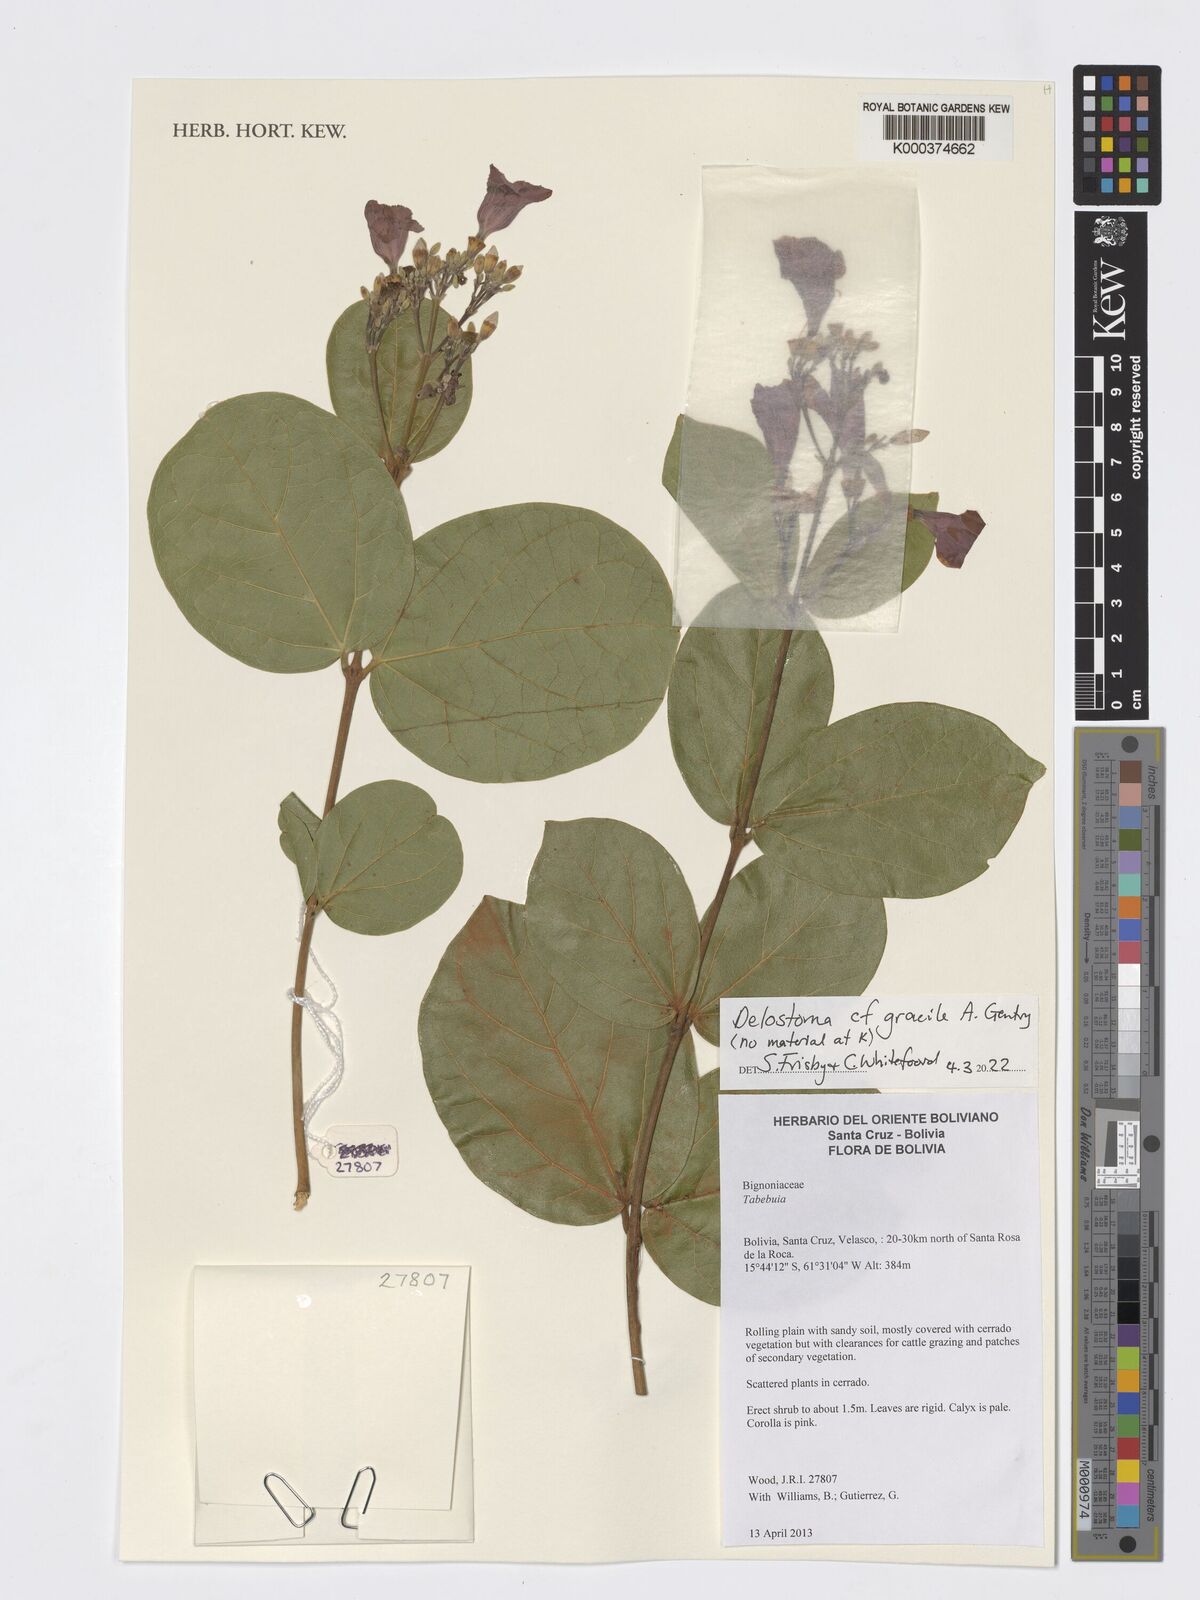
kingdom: Plantae
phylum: Tracheophyta
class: Magnoliopsida
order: Lamiales
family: Bignoniaceae
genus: Fridericia
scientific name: Fridericia platyphylla
